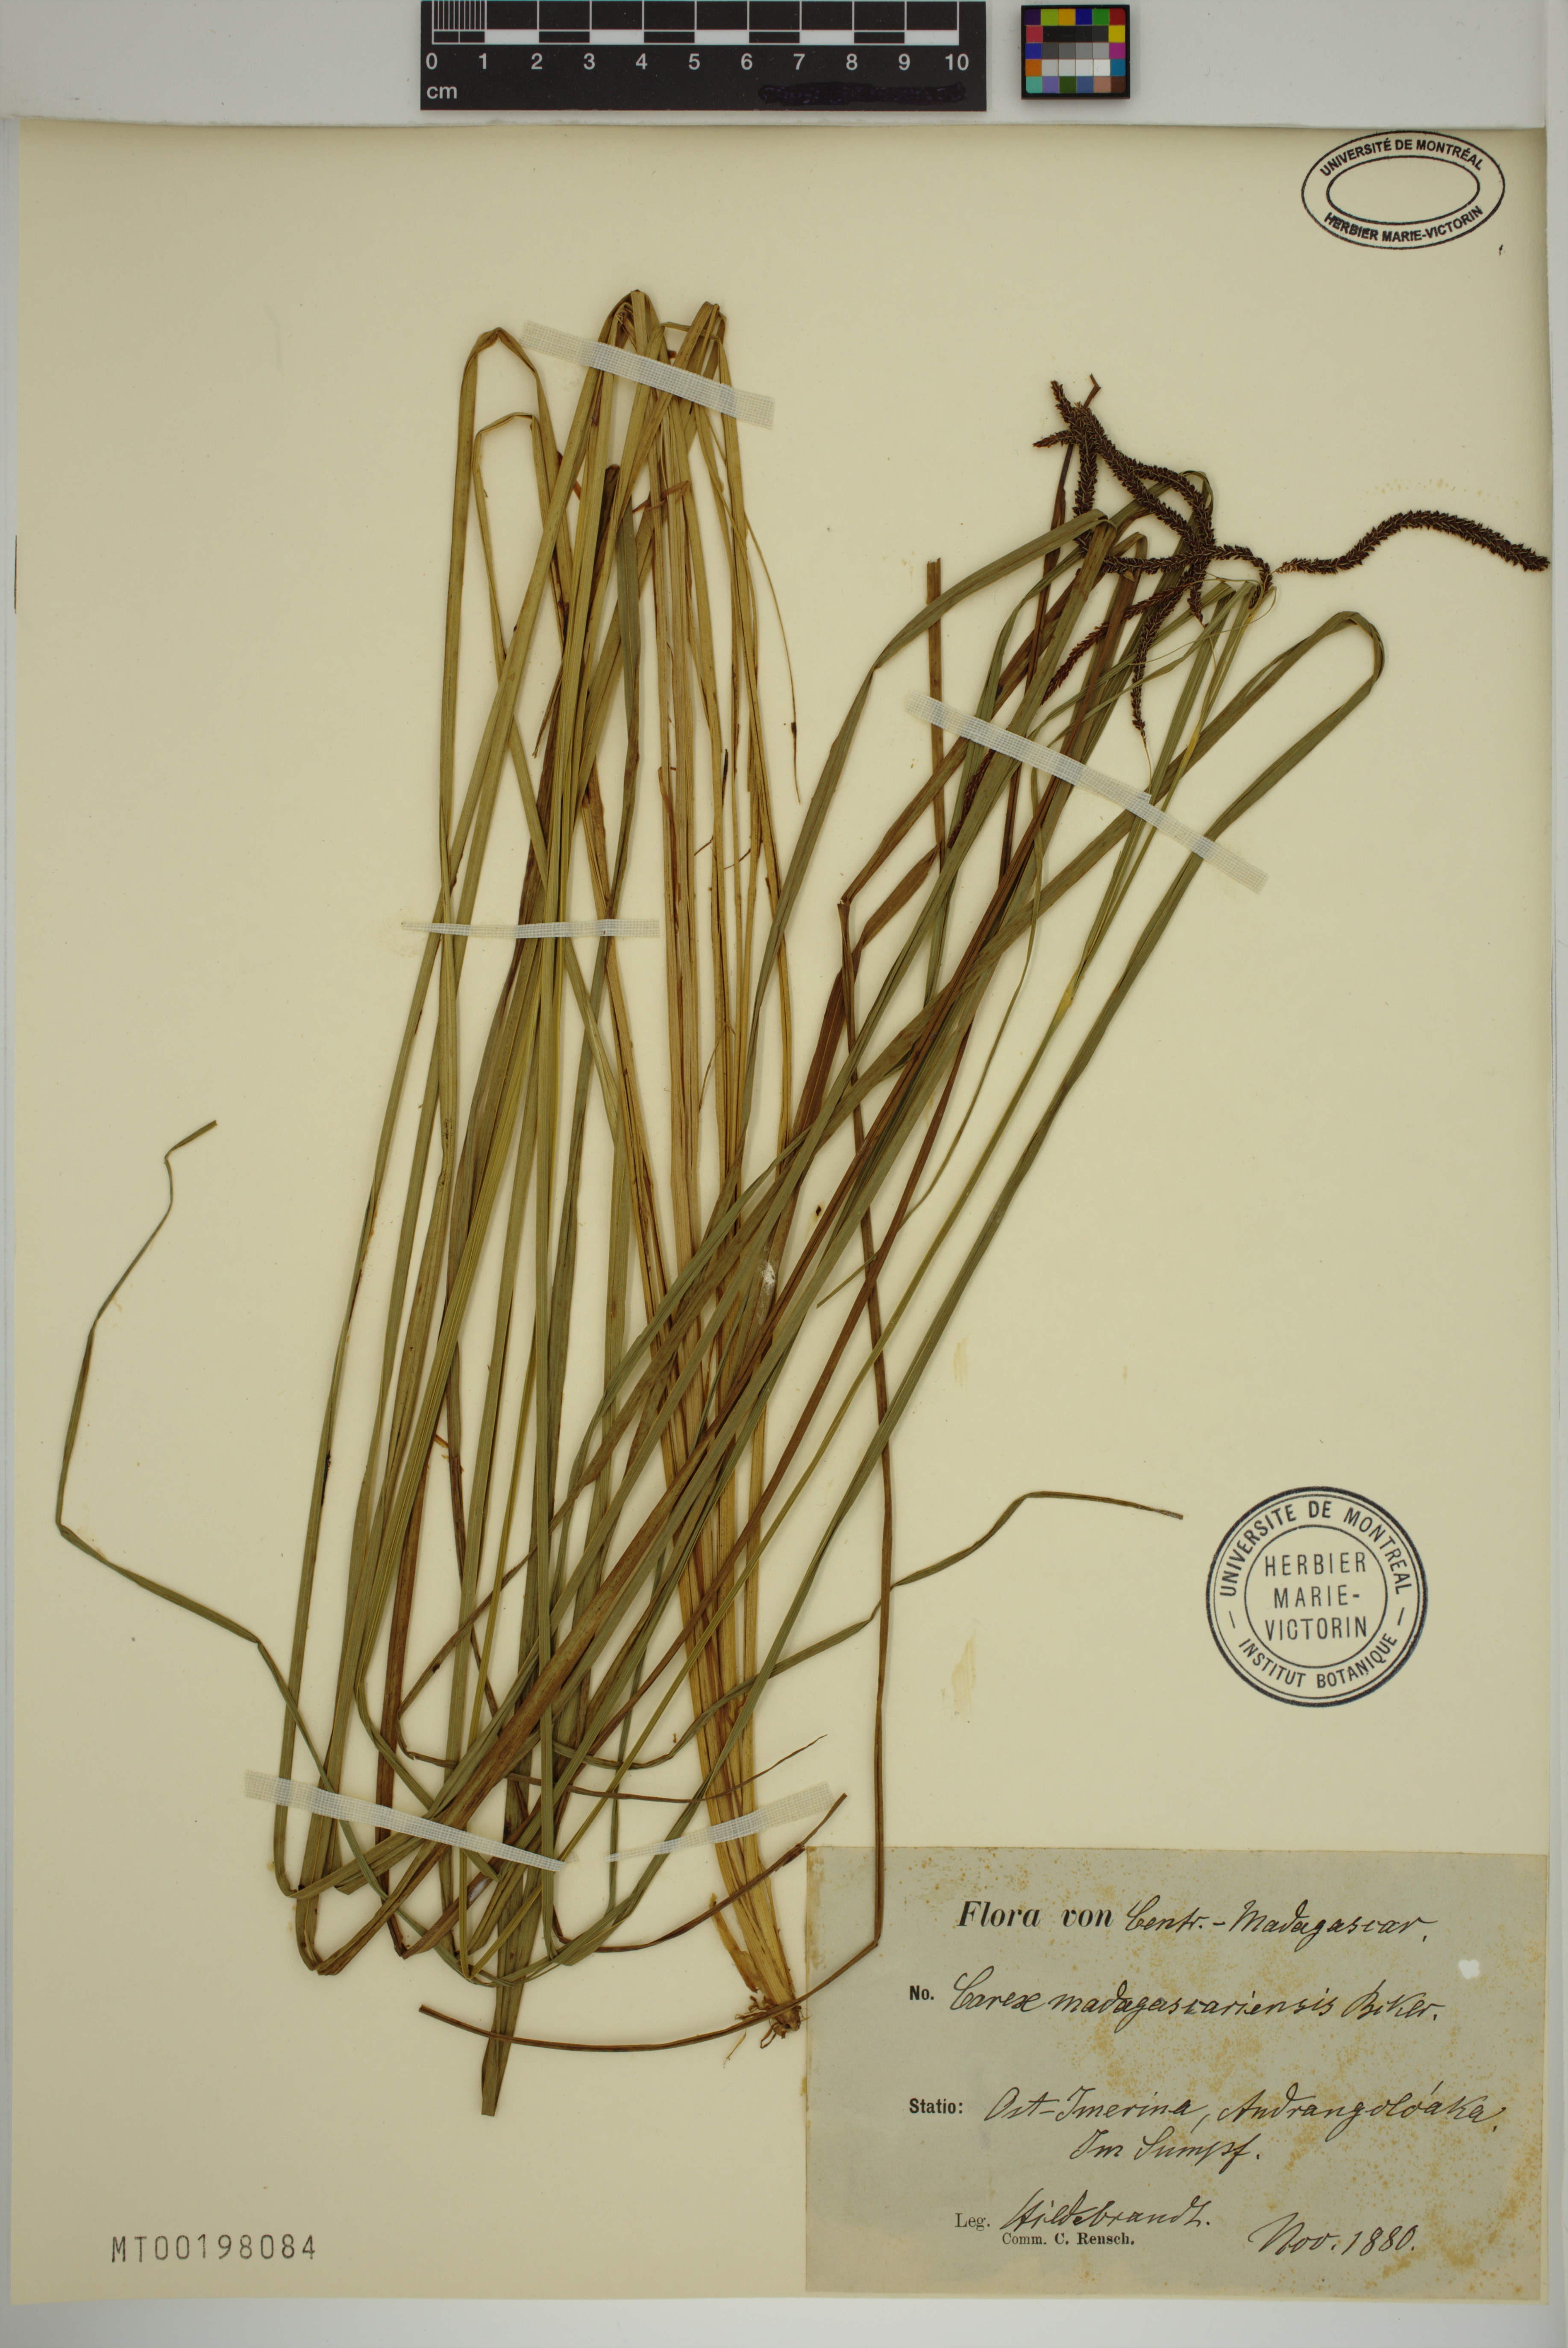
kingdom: Plantae
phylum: Tracheophyta
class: Liliopsida
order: Poales
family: Cyperaceae
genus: Carex
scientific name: Carex madagascariensis
